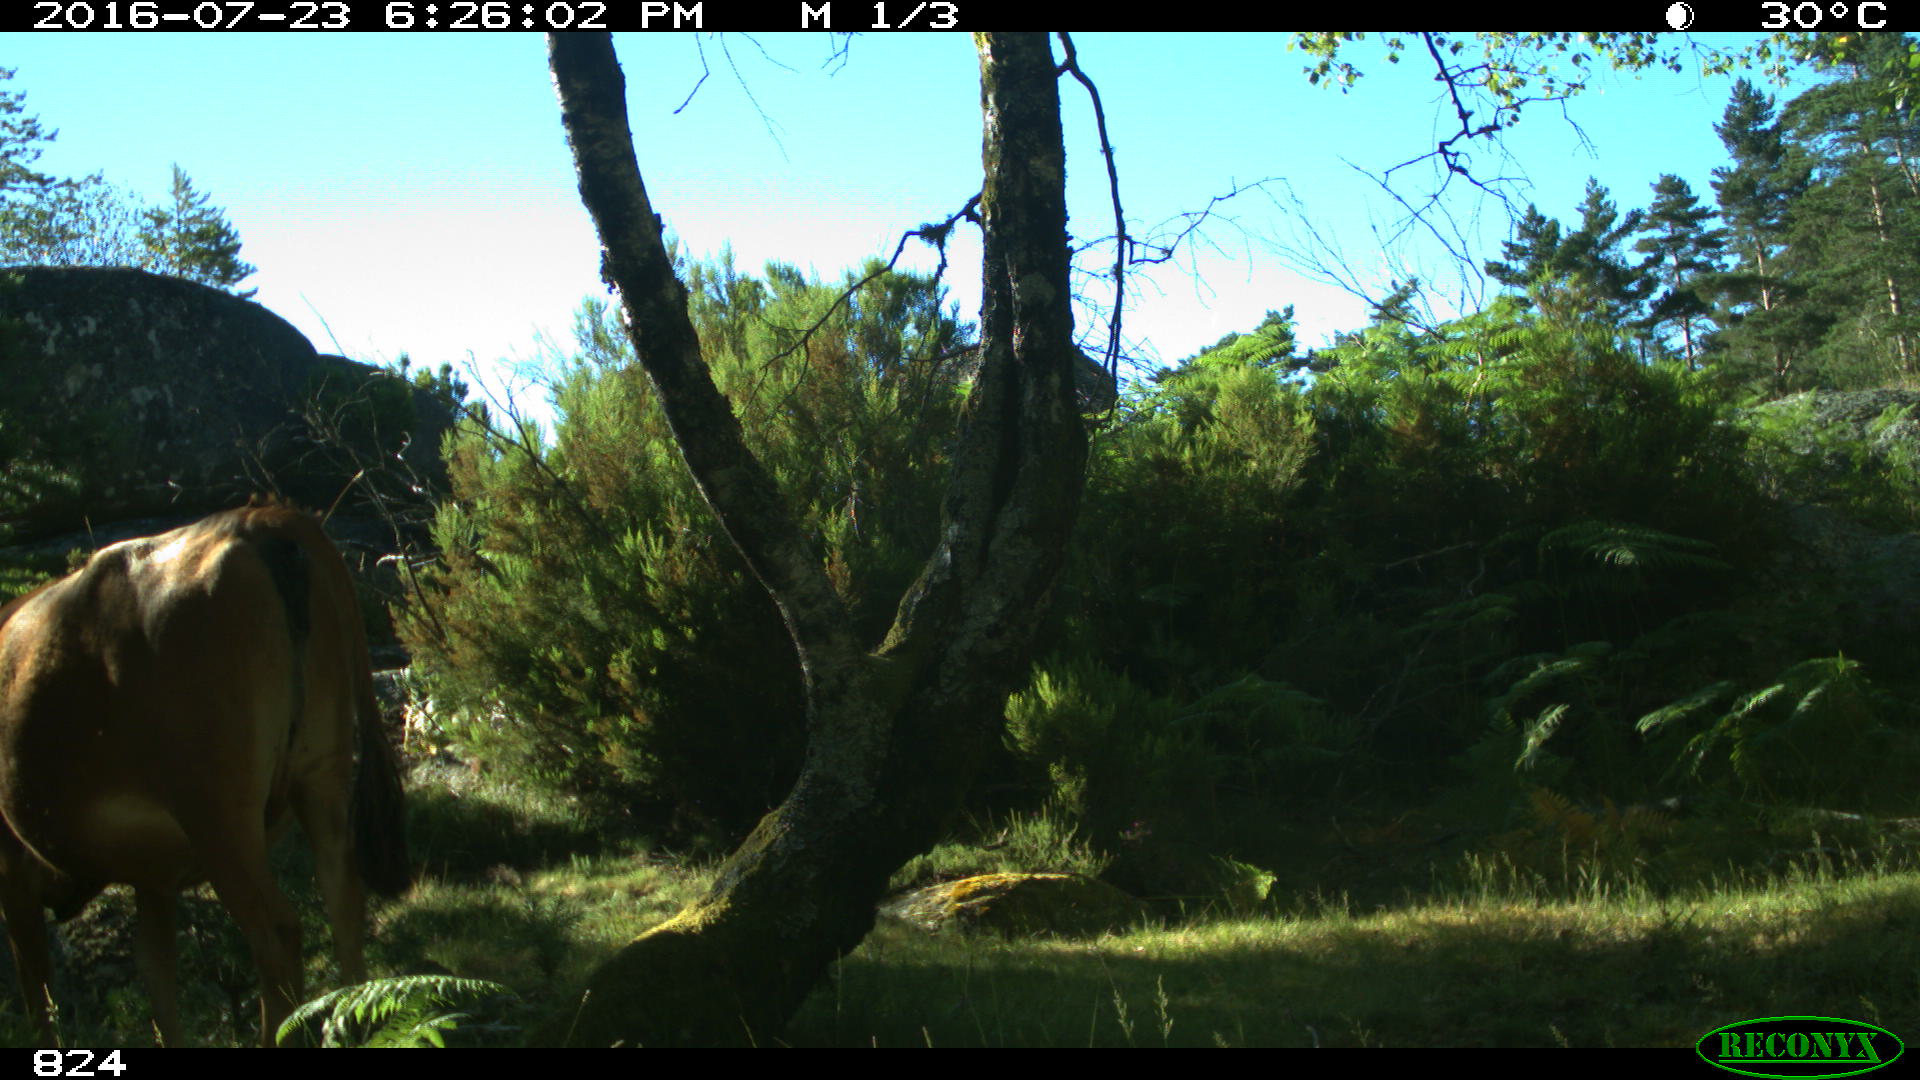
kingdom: Animalia
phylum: Chordata
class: Mammalia
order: Artiodactyla
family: Bovidae
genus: Bos
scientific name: Bos taurus
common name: Domesticated cattle
